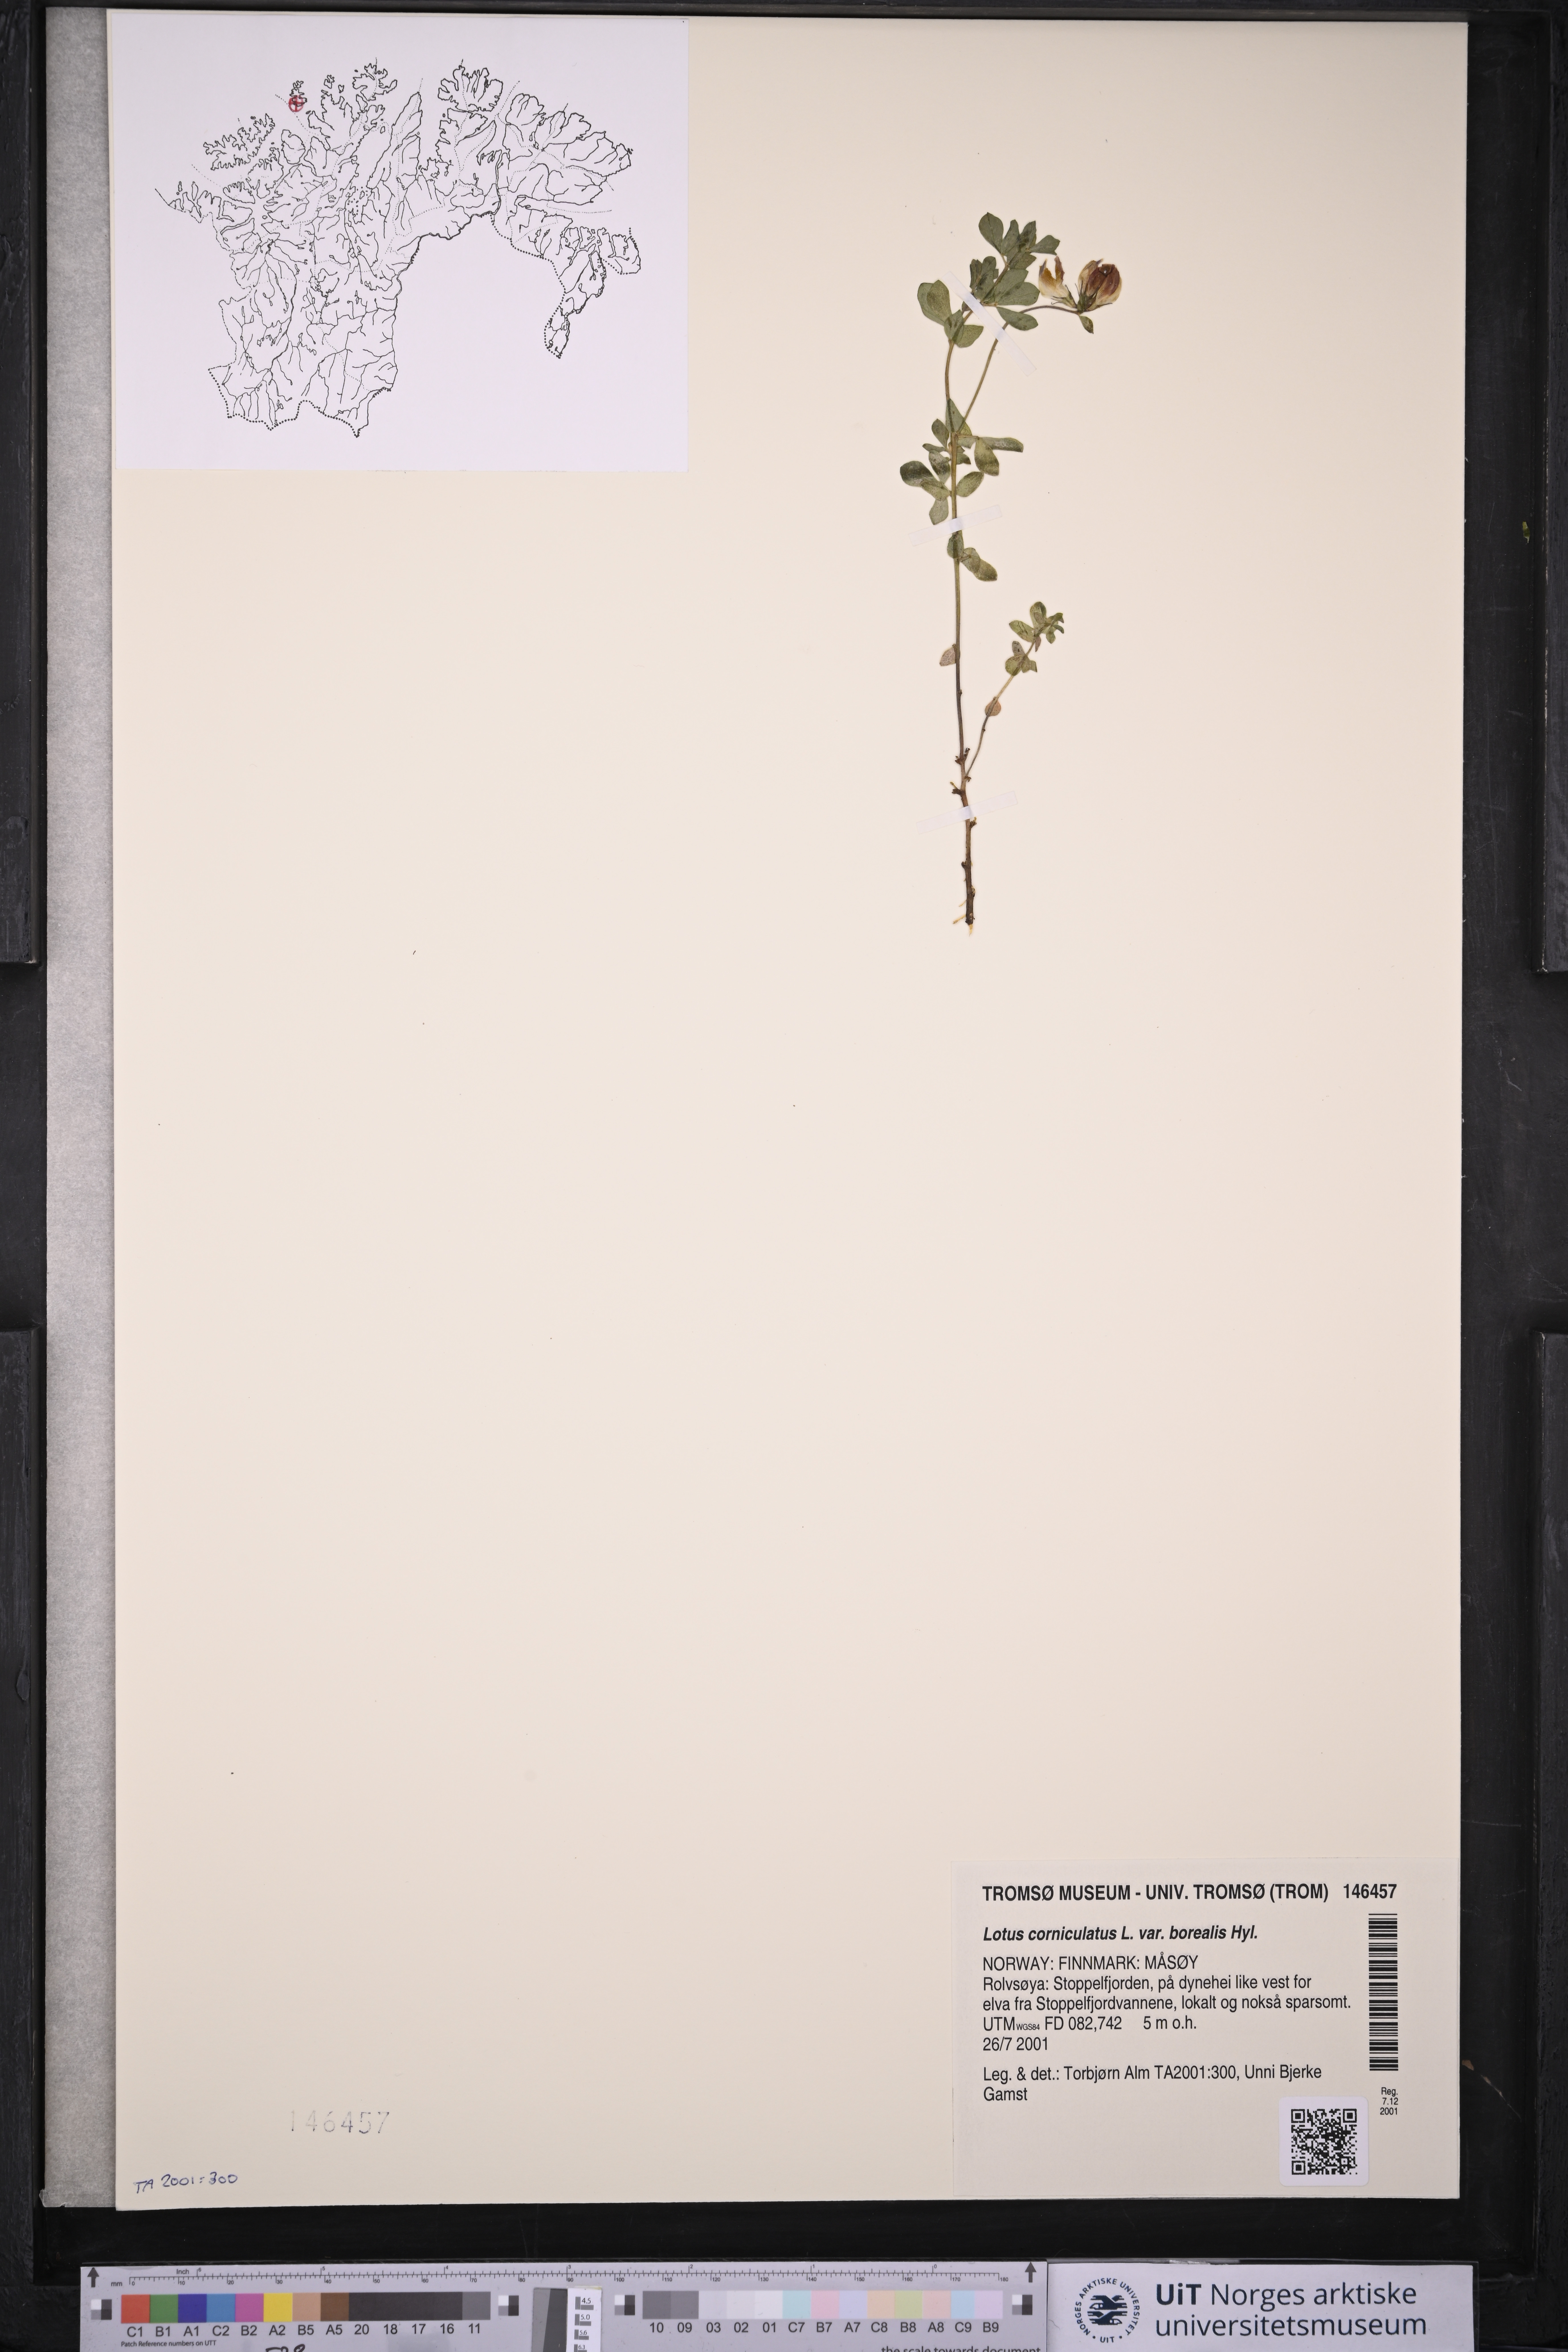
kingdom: Plantae
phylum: Tracheophyta
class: Magnoliopsida
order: Fabales
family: Fabaceae
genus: Lotus
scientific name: Lotus corniculatus
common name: Common bird's-foot-trefoil
